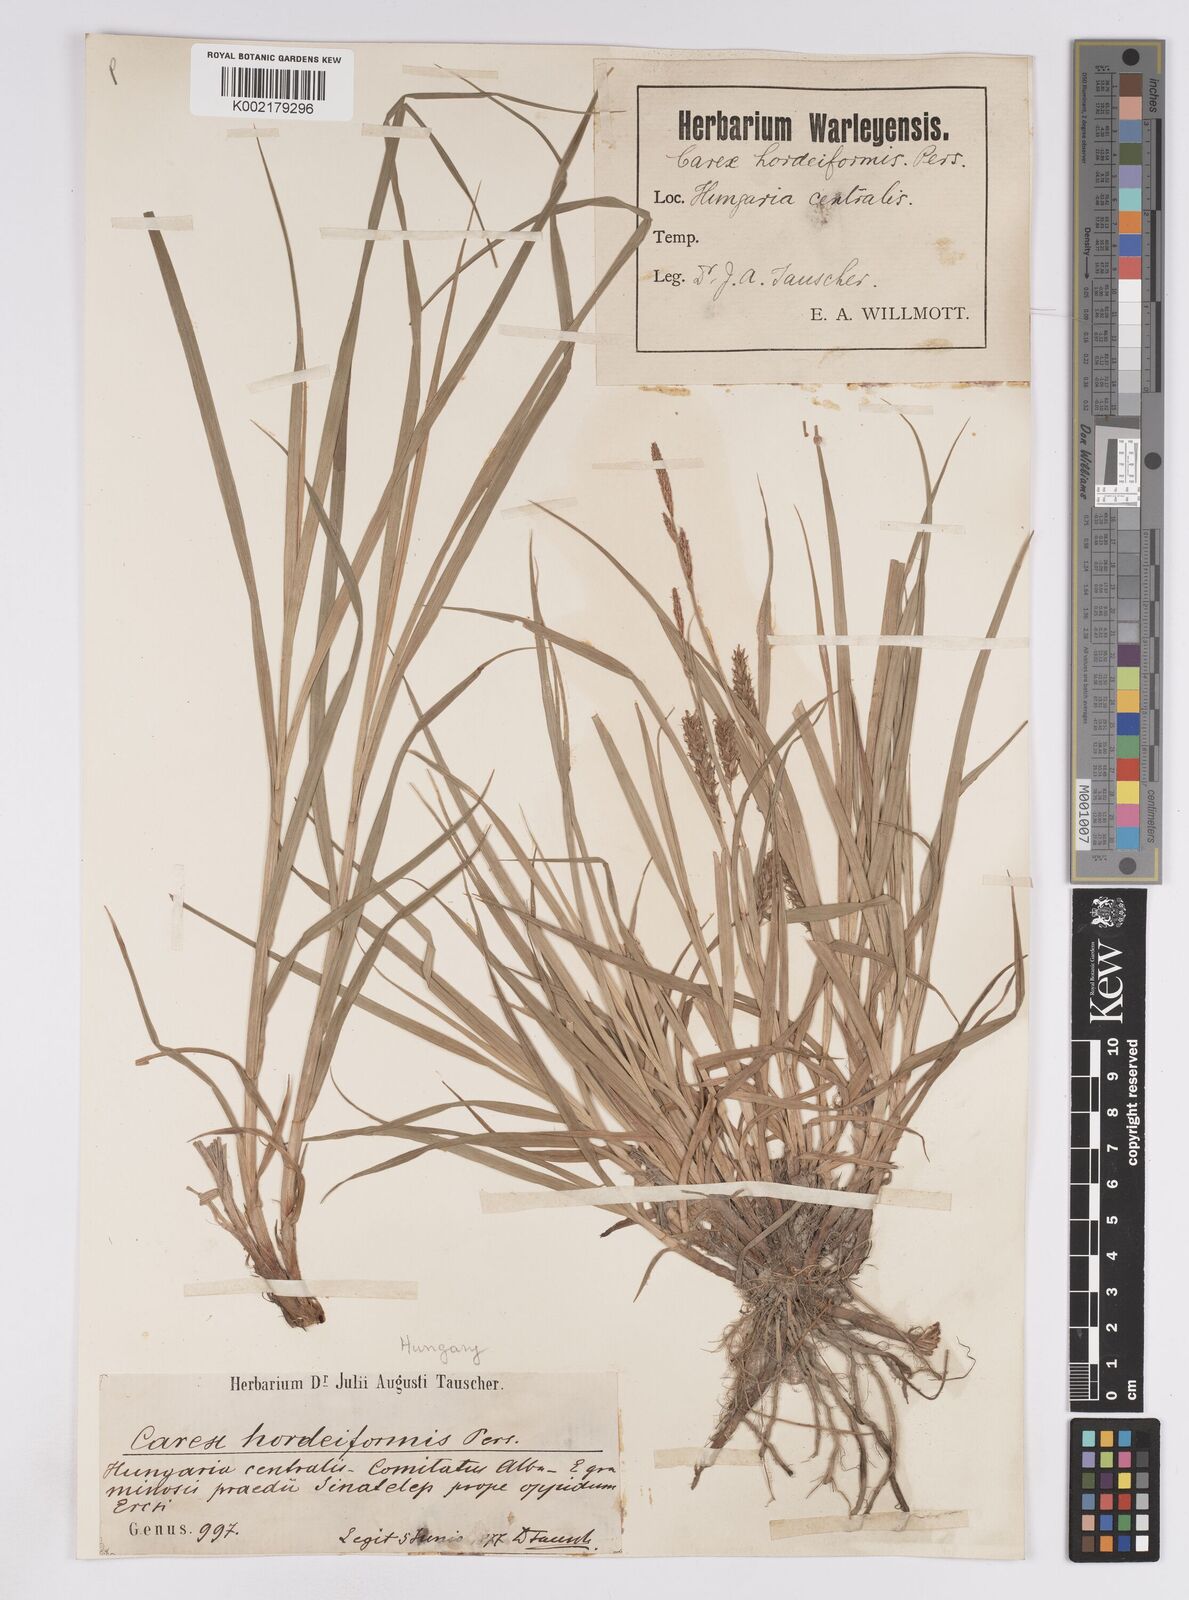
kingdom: Plantae
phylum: Tracheophyta
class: Liliopsida
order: Poales
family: Cyperaceae
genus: Carex
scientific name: Carex hordeistichos
